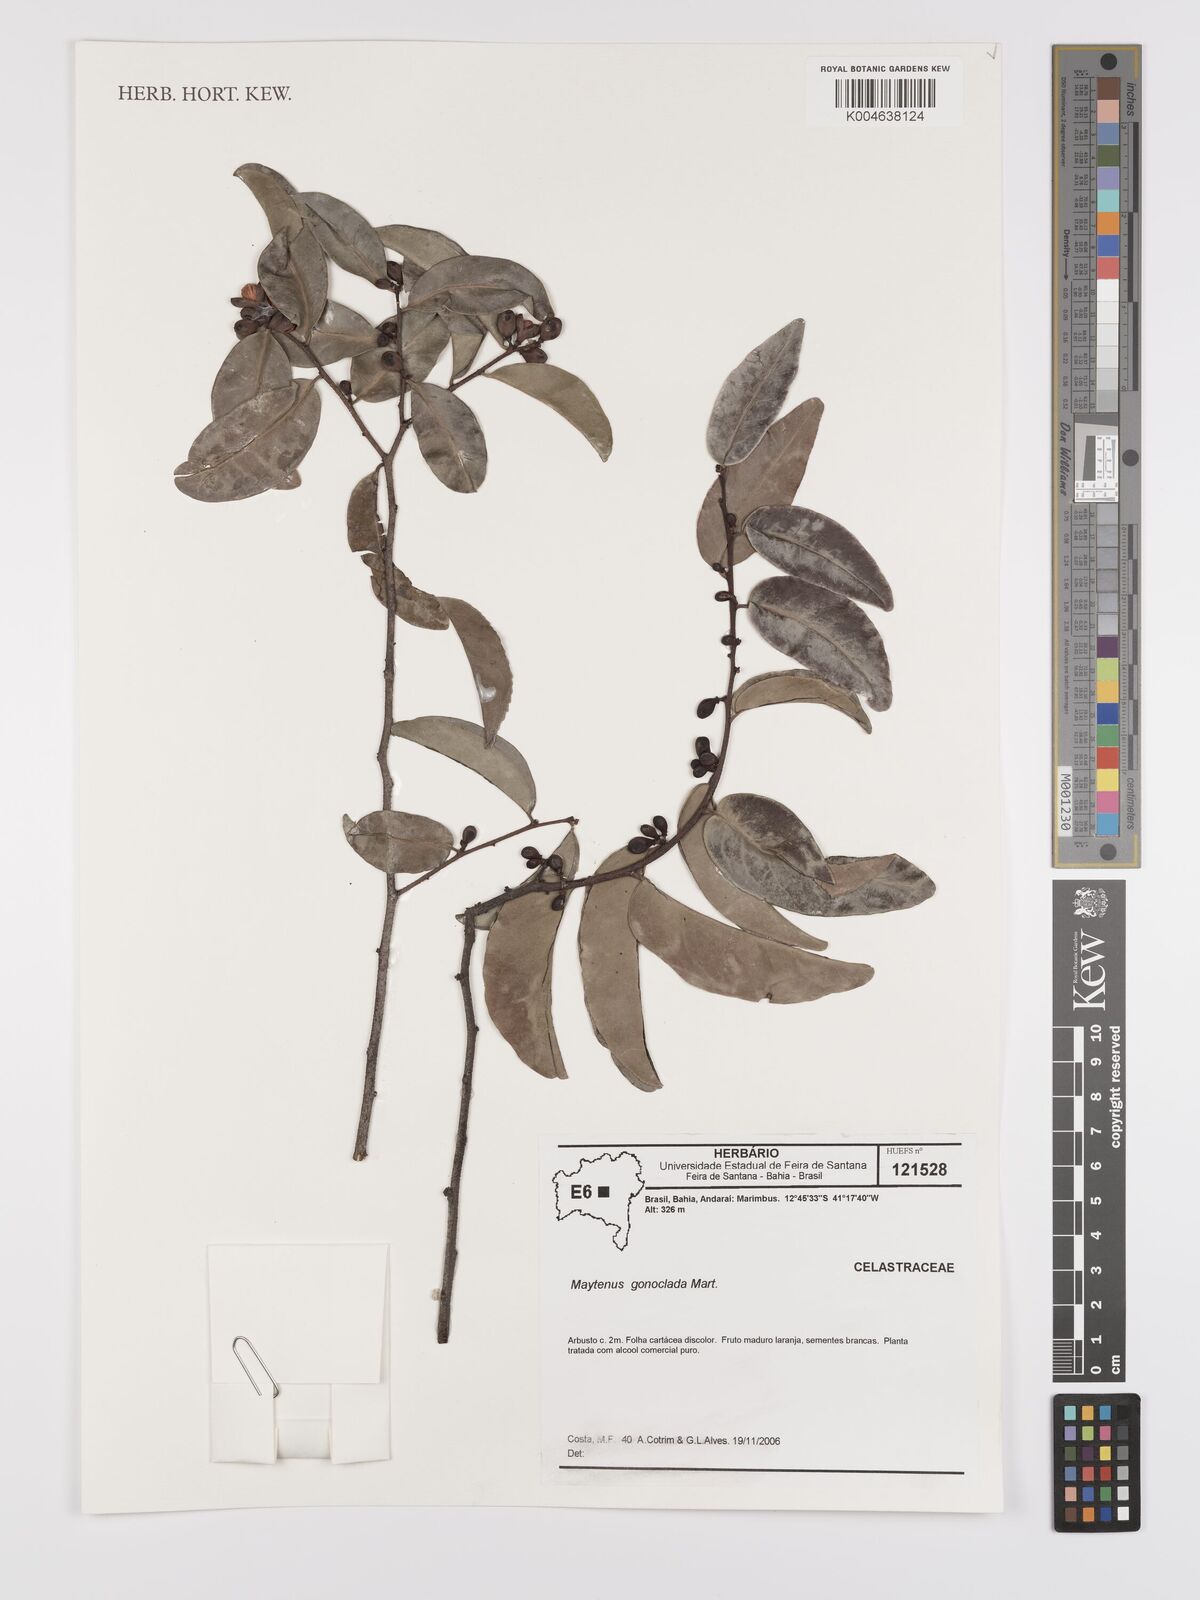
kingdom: Plantae
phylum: Tracheophyta
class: Magnoliopsida
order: Celastrales
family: Celastraceae
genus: Monteverdia
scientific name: Monteverdia gonoclada
